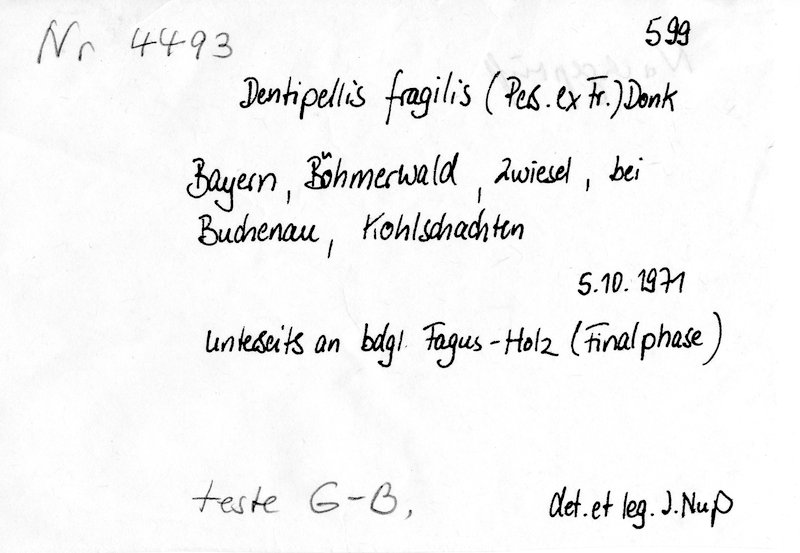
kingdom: Plantae
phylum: Tracheophyta
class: Magnoliopsida
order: Fagales
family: Fagaceae
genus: Fagus
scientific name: Fagus sylvatica
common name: Beech
